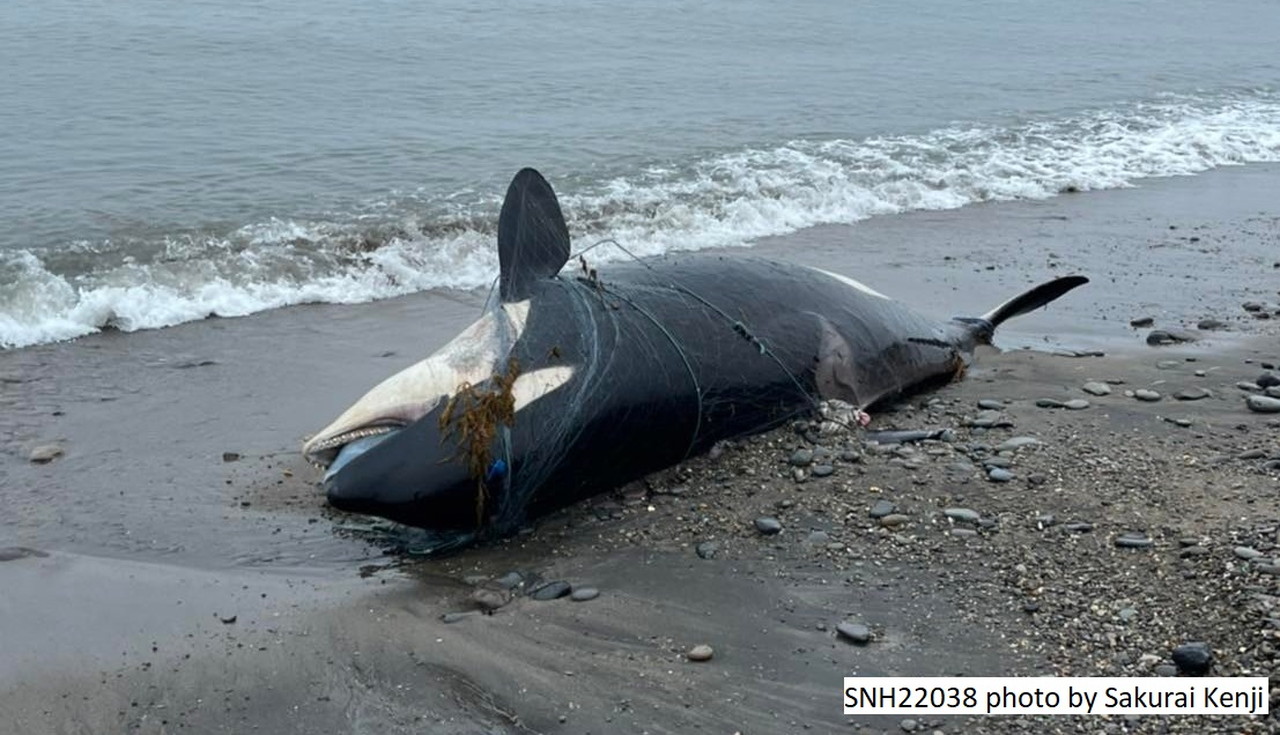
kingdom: Animalia
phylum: Chordata
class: Mammalia
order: Cetacea
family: Delphinidae
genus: Orcinus
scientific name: Orcinus orca
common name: Killer whale
